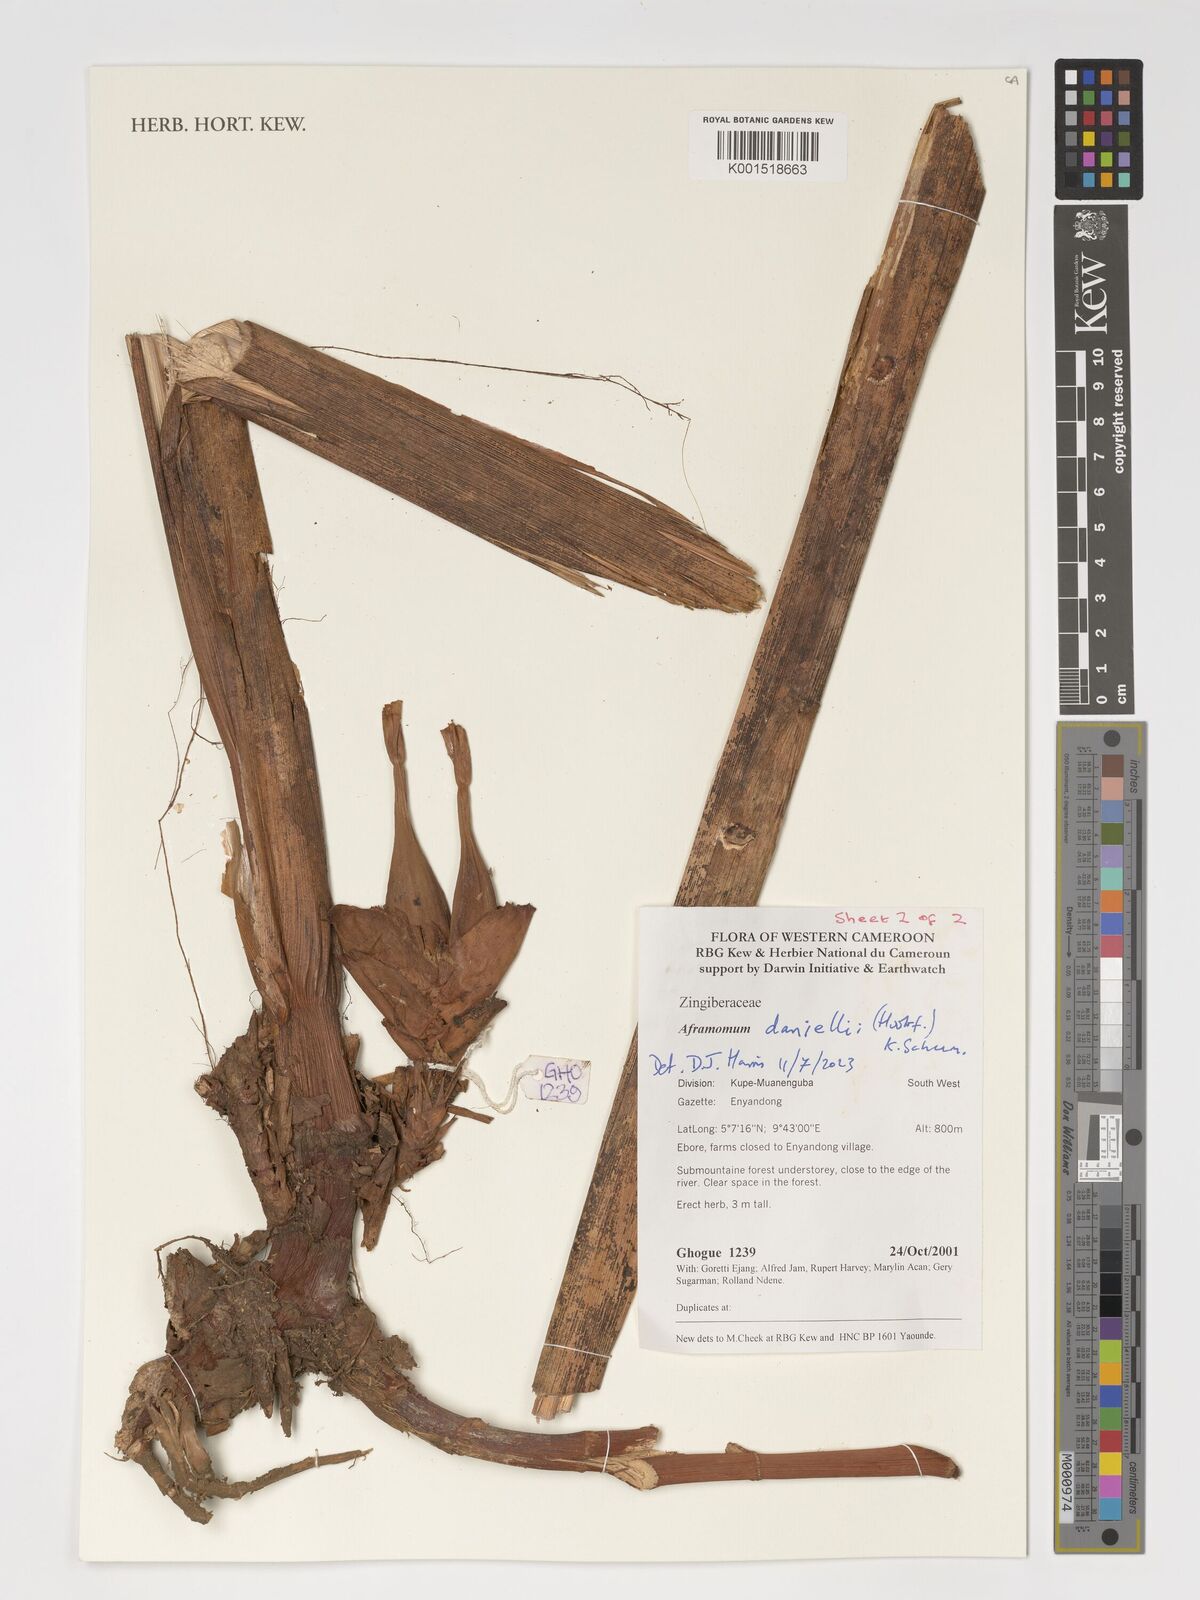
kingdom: Plantae
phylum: Tracheophyta
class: Liliopsida
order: Zingiberales
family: Zingiberaceae
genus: Aframomum
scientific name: Aframomum daniellii
